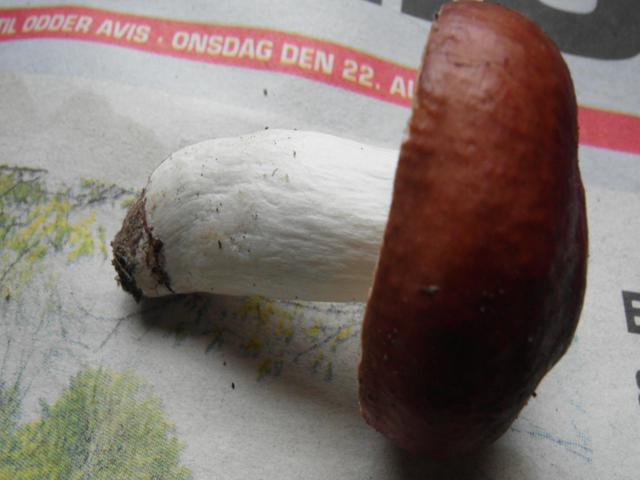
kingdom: Fungi
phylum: Basidiomycota
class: Agaricomycetes
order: Russulales
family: Russulaceae
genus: Russula
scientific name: Russula nitida
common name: året skørhat
